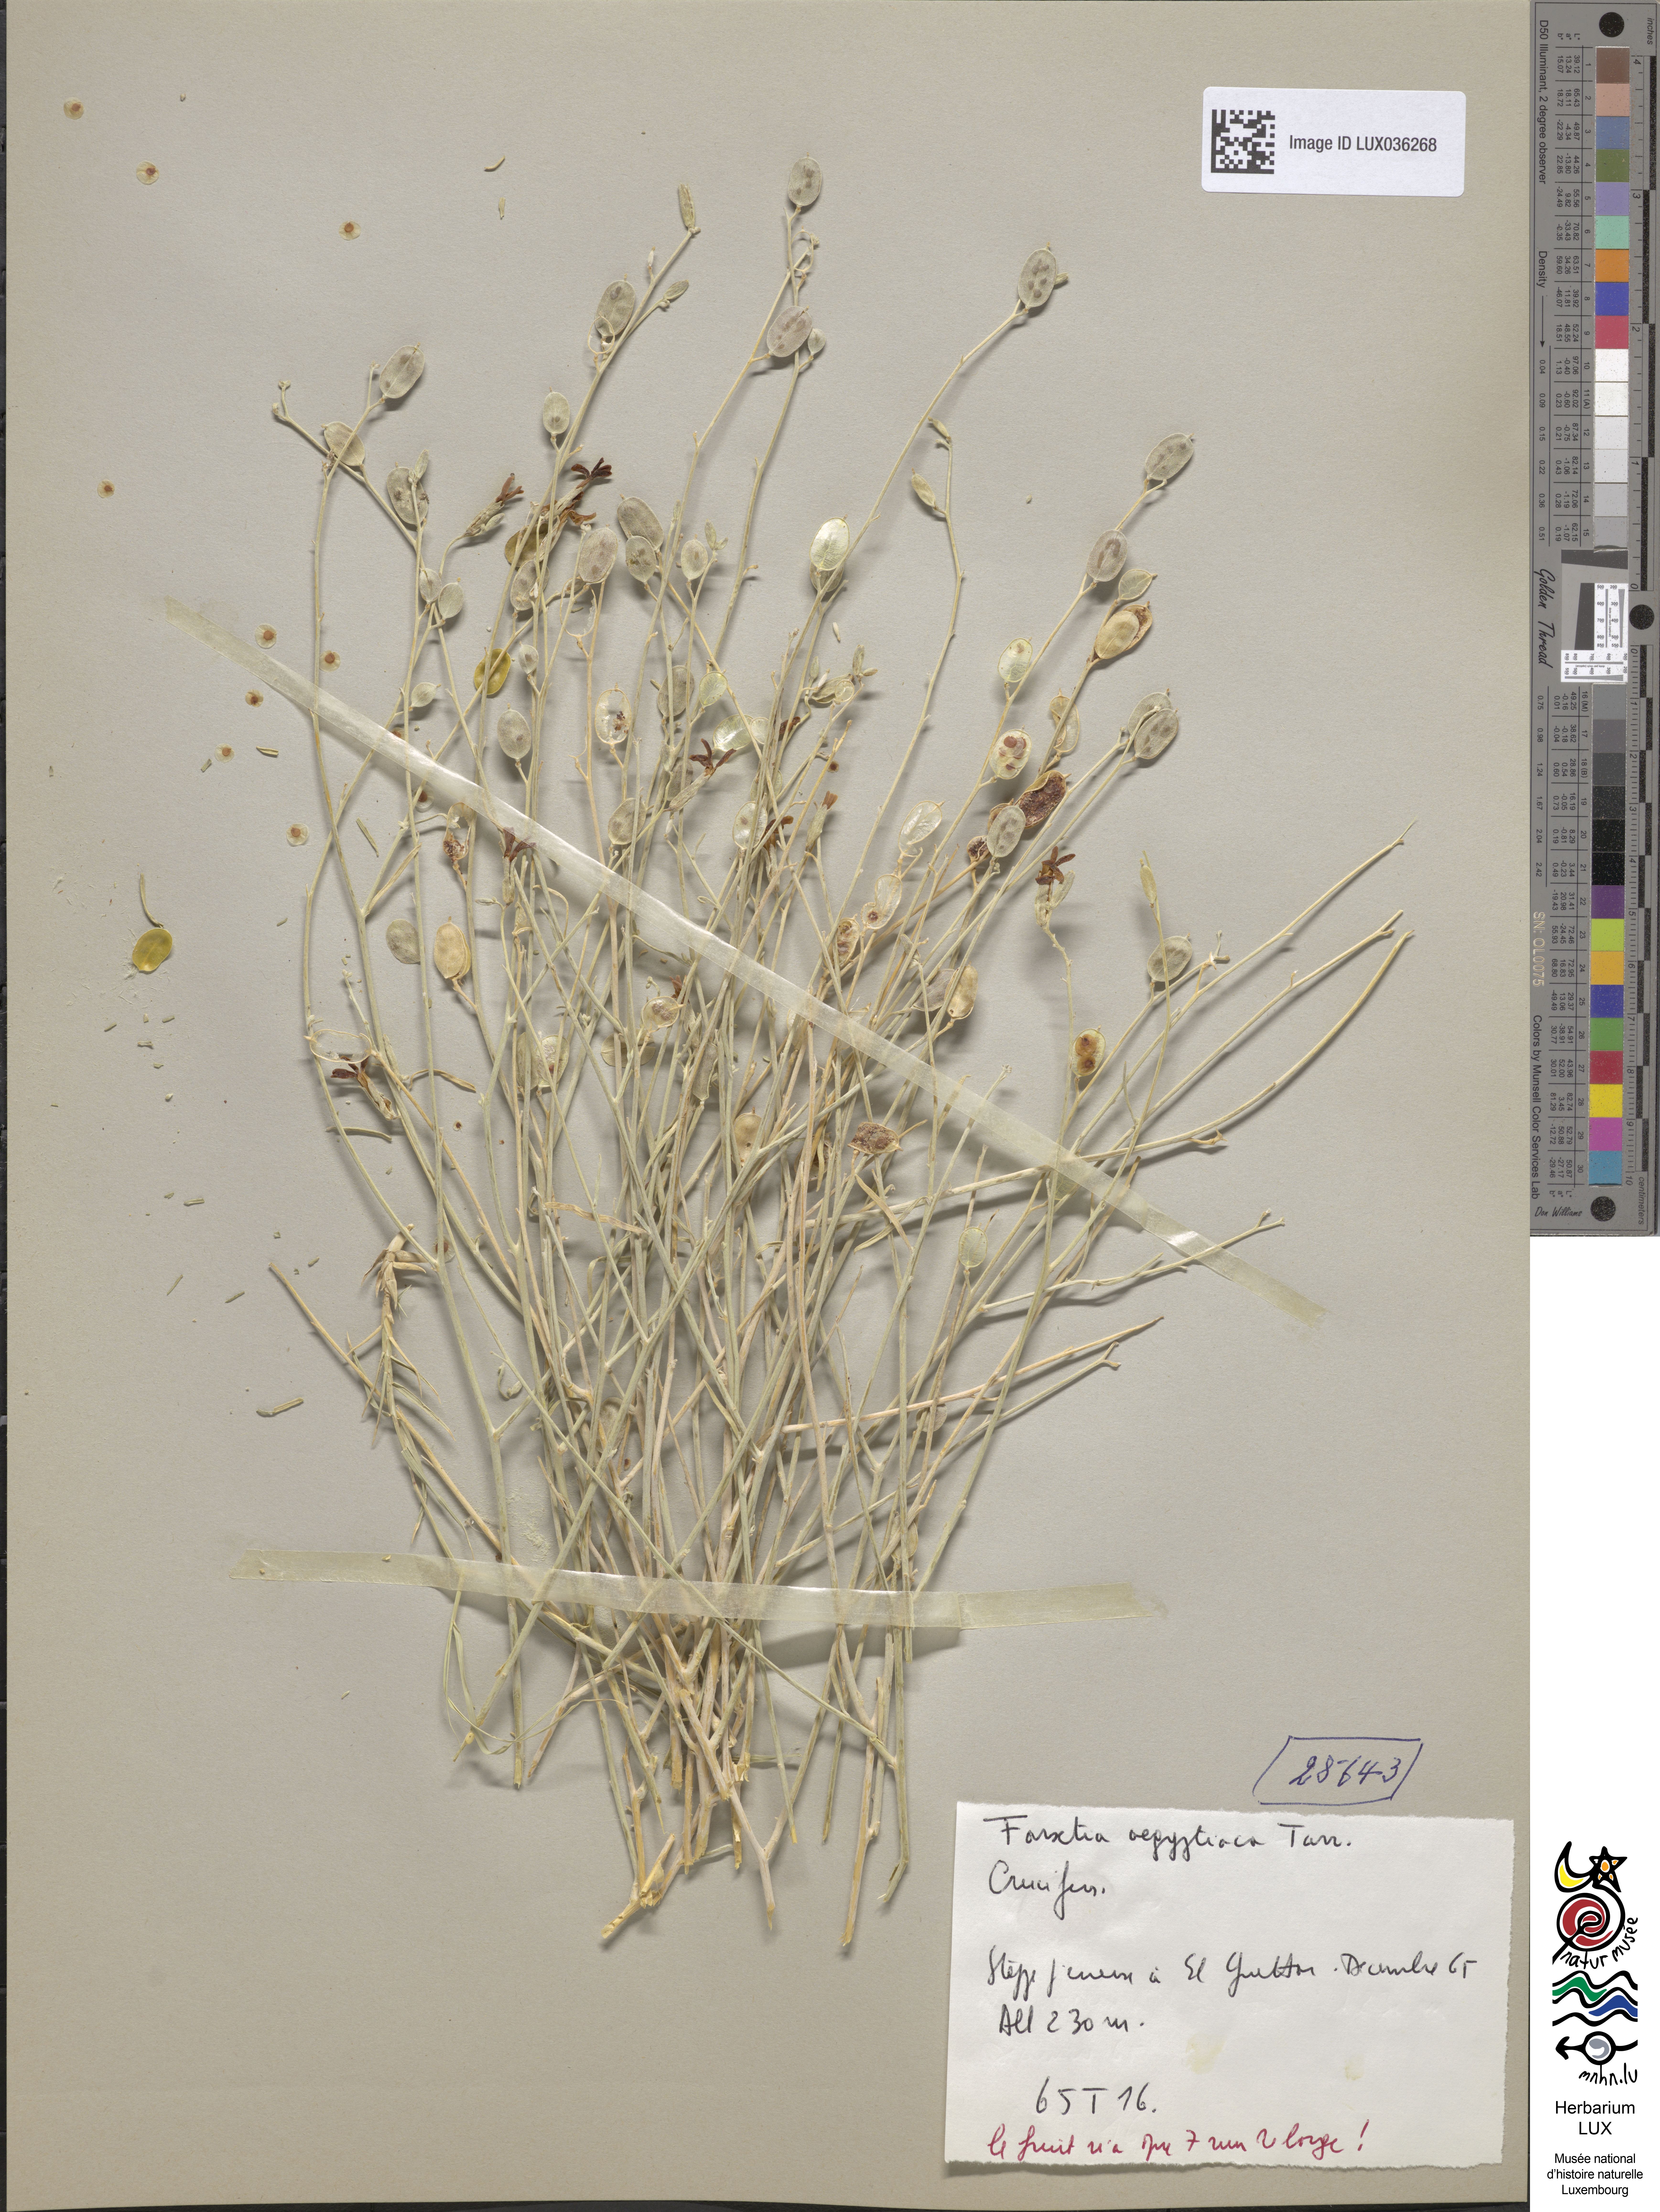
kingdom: Plantae
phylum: Tracheophyta
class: Magnoliopsida
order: Brassicales
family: Brassicaceae
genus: Farsetia
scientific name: Farsetia aegyptia
